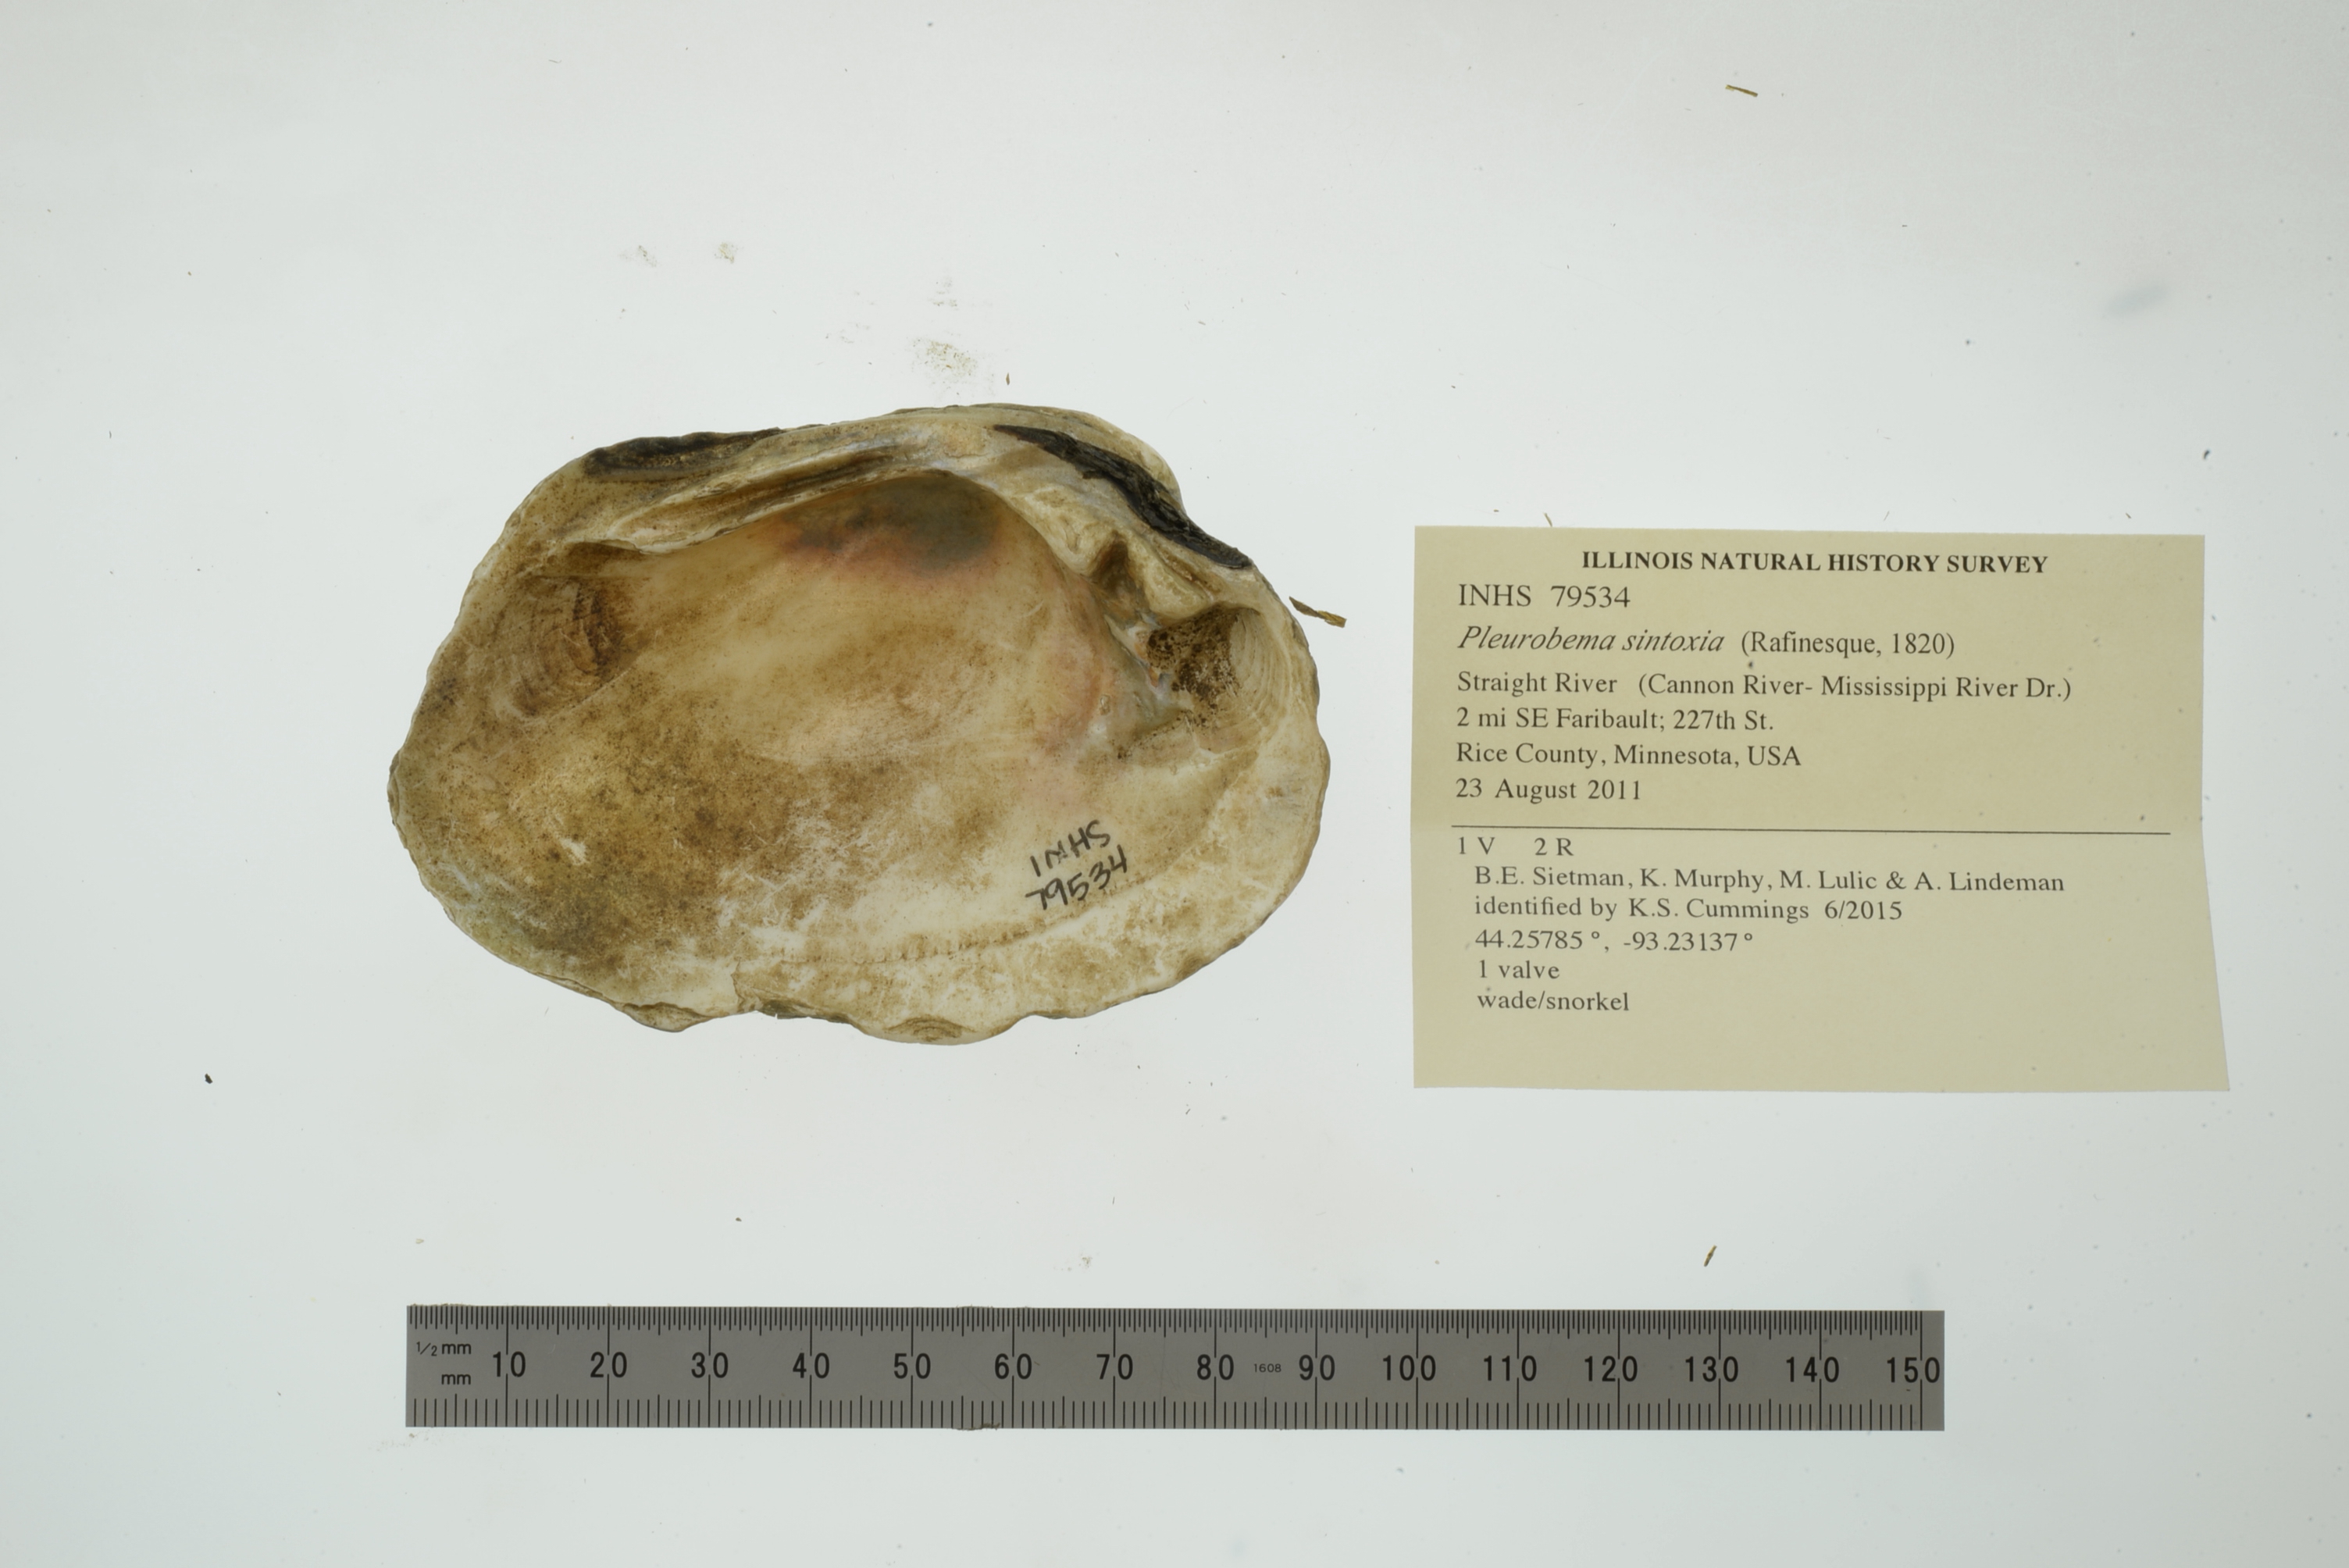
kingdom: Animalia
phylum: Mollusca
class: Bivalvia
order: Unionida
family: Unionidae
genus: Pleurobema
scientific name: Pleurobema sintoxia
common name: Round pigtoe
